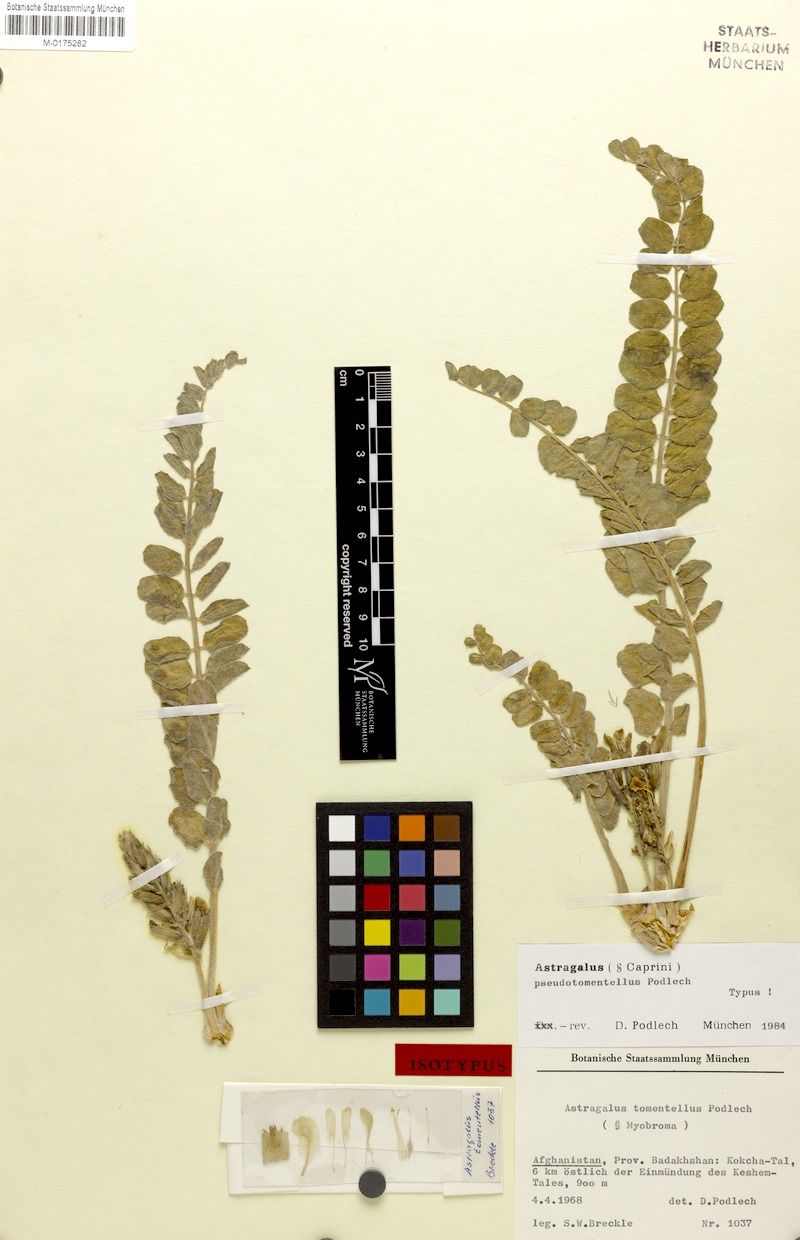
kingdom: Plantae
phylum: Tracheophyta
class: Magnoliopsida
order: Fabales
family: Fabaceae
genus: Astragalus
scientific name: Astragalus pseudotomentellus
